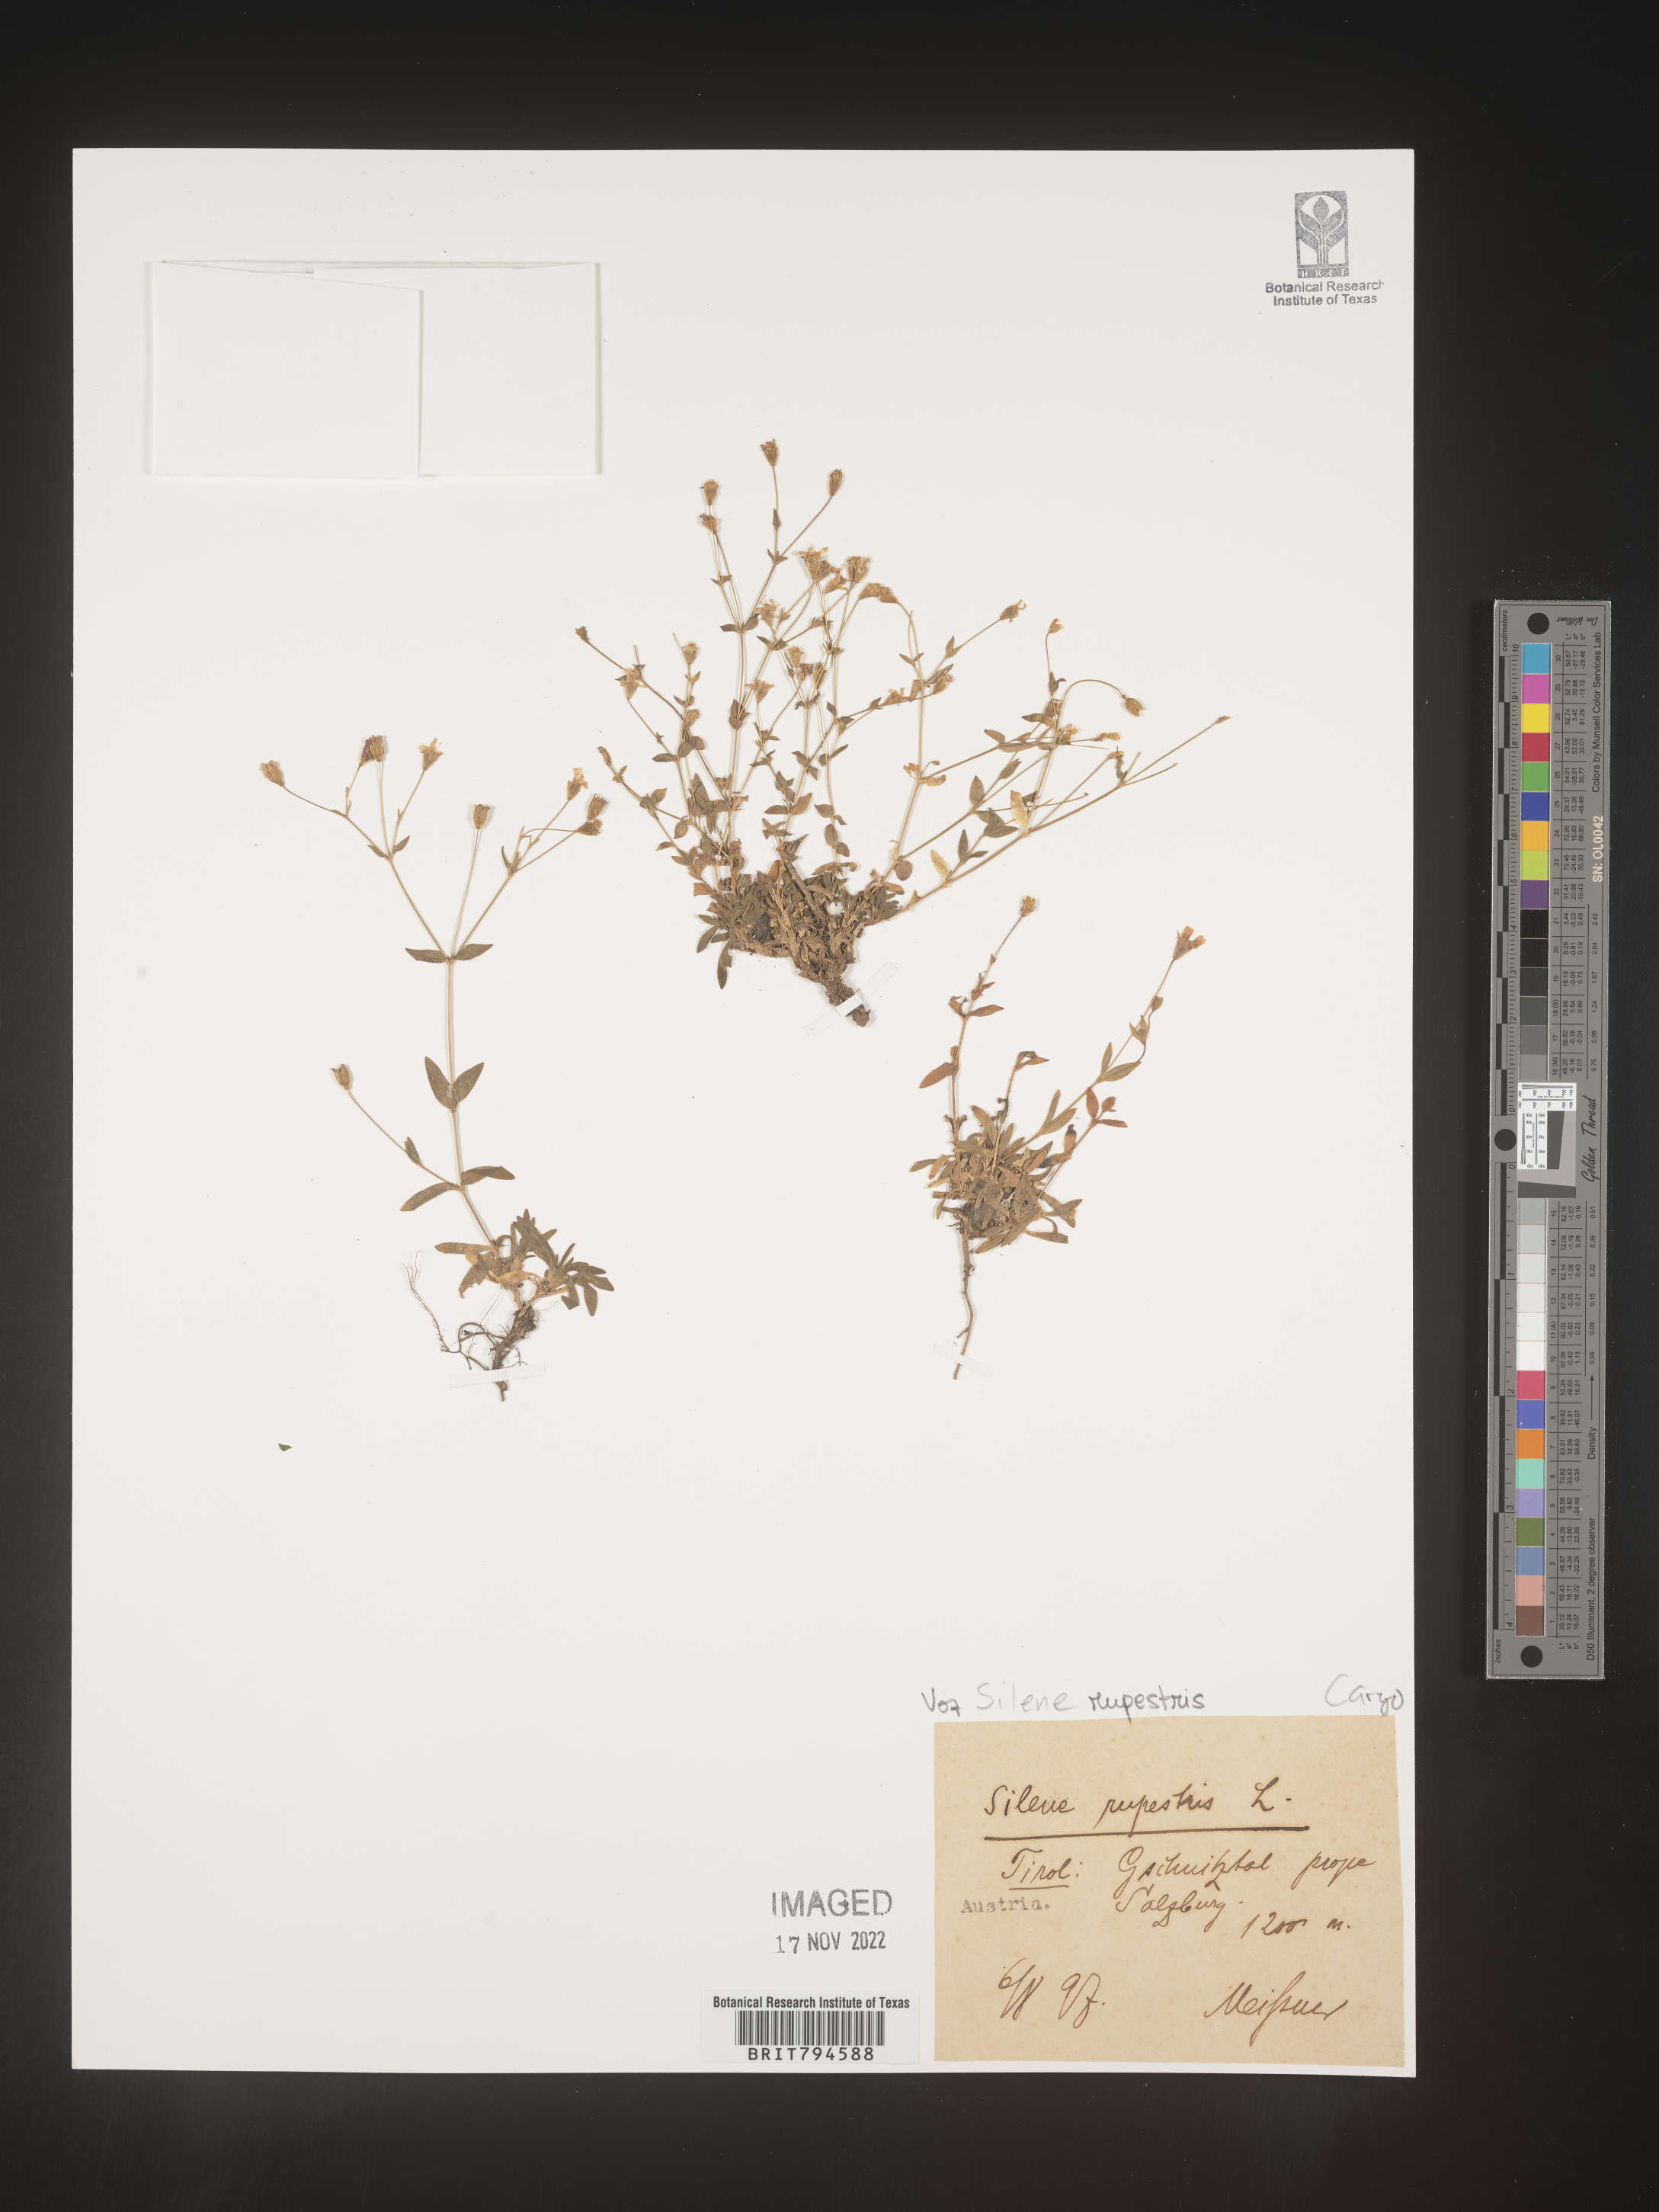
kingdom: Plantae
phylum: Tracheophyta
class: Magnoliopsida
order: Caryophyllales
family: Caryophyllaceae
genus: Atocion
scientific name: Atocion rupestre
